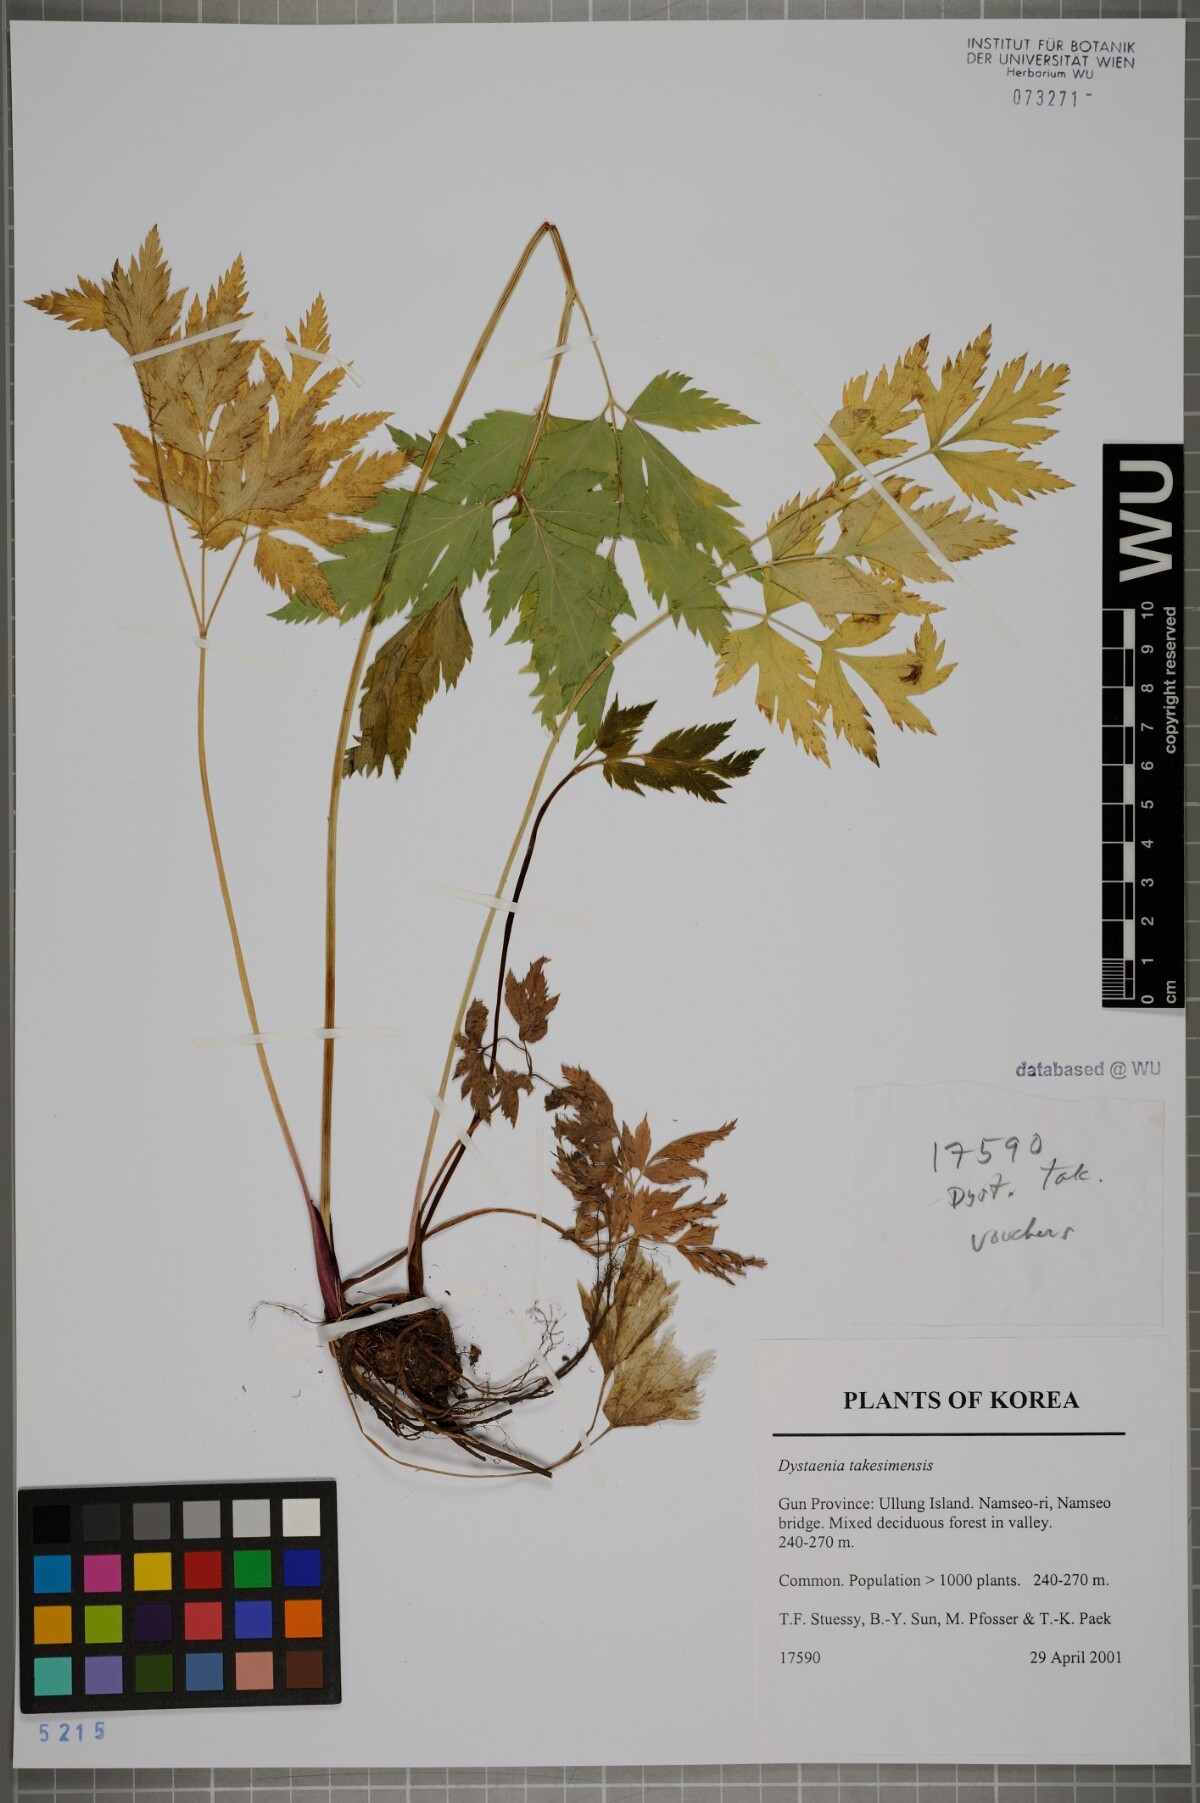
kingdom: Plantae
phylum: Tracheophyta
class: Magnoliopsida
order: Apiales
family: Apiaceae
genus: Dystaenia
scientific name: Dystaenia takeshimana
